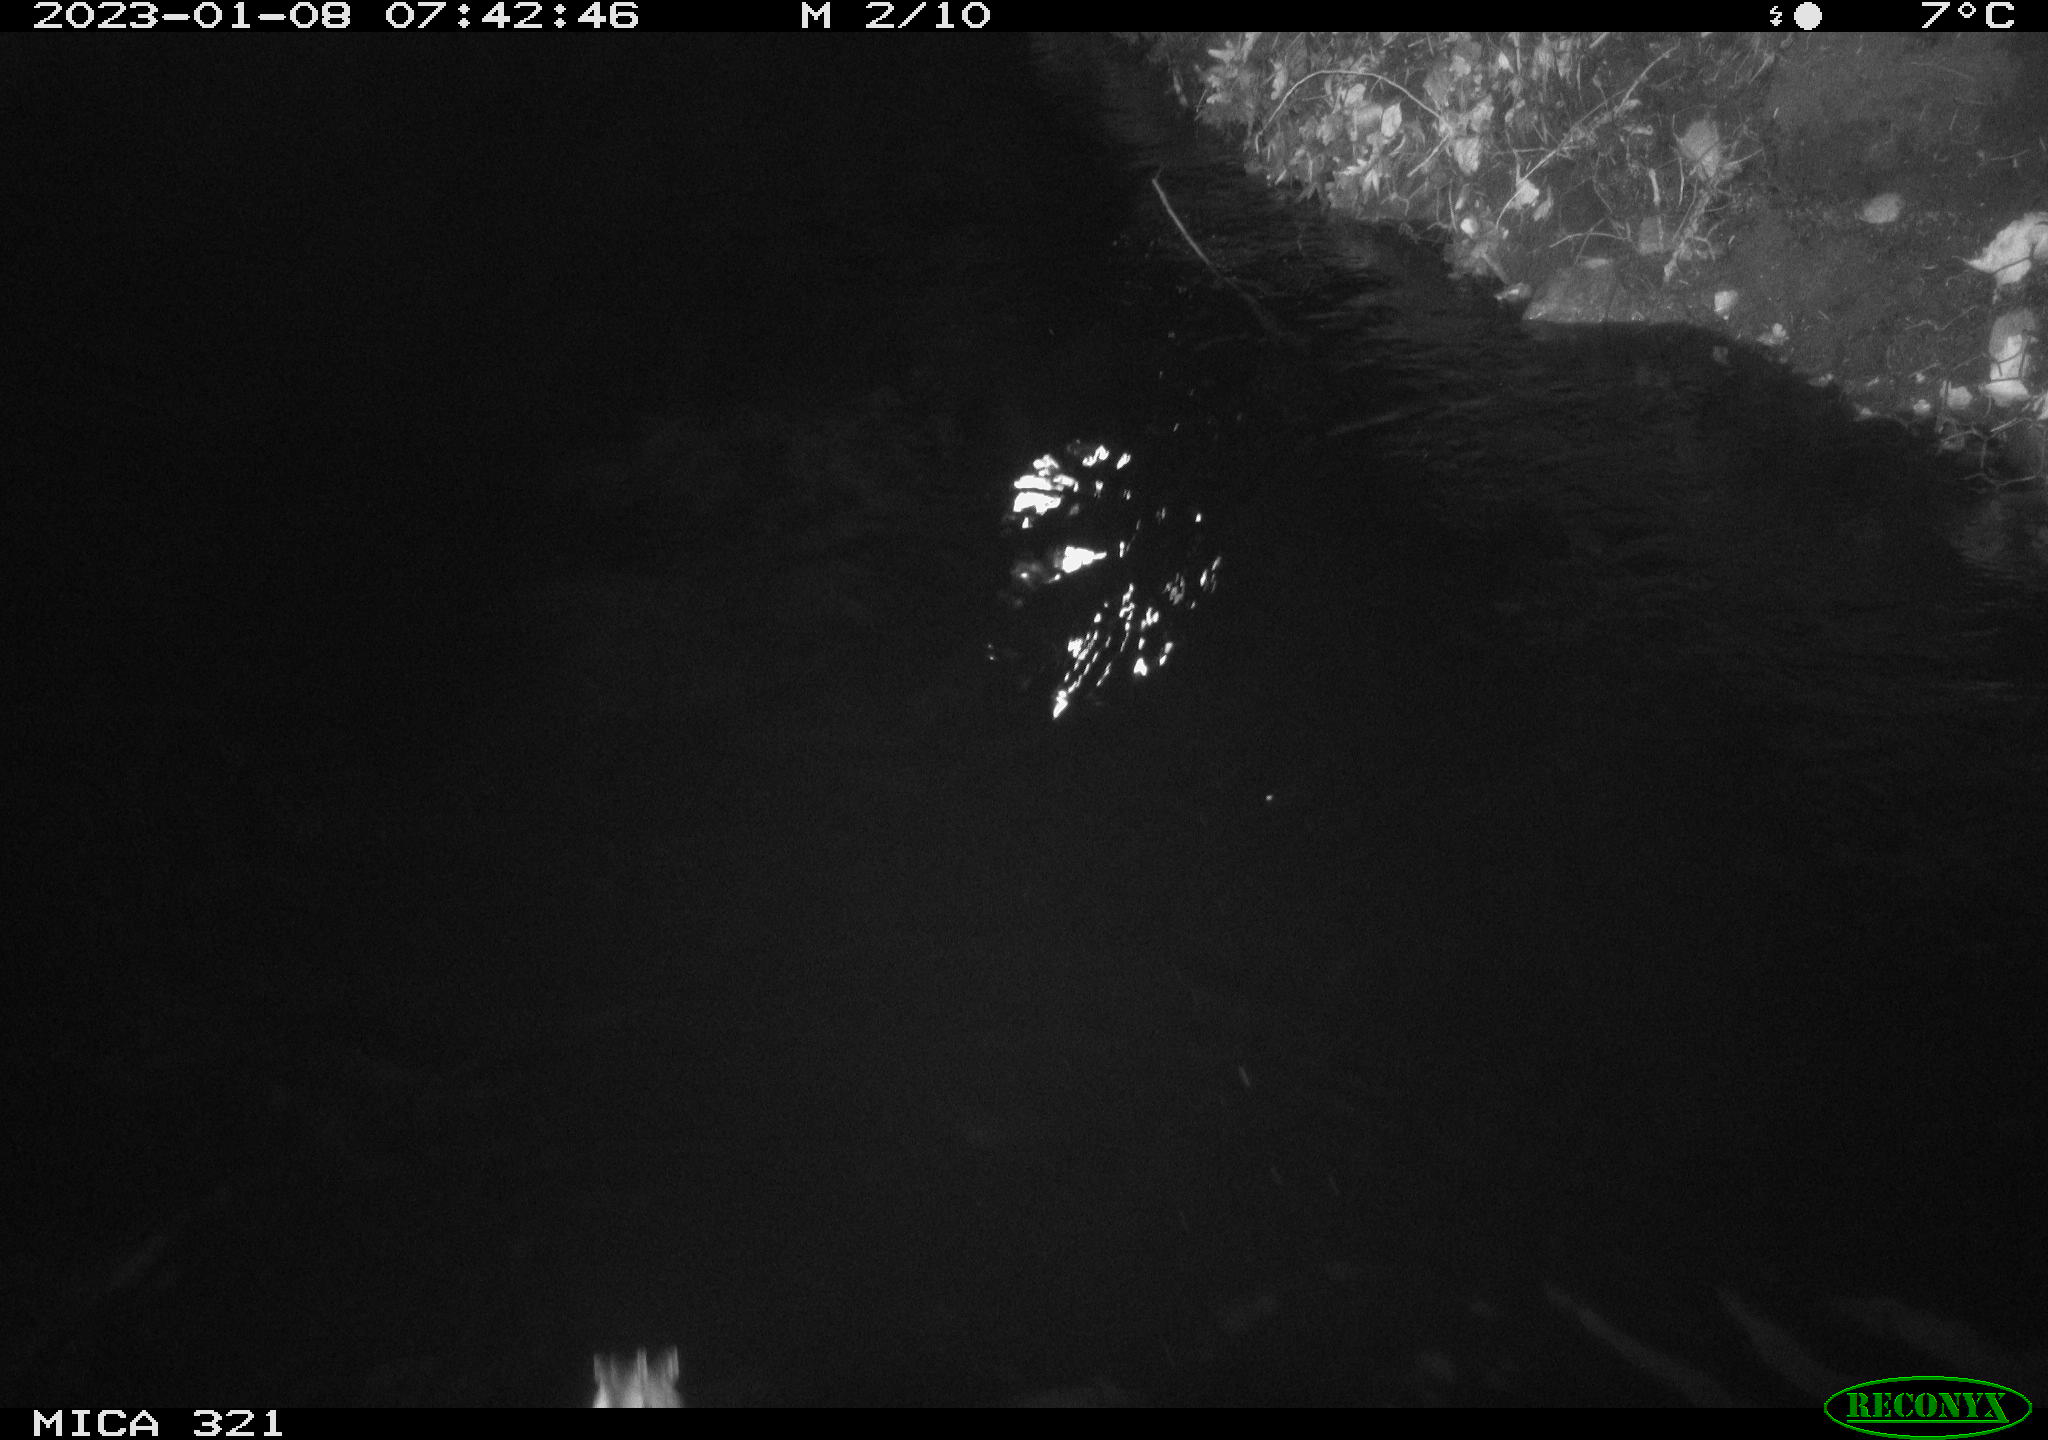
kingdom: Animalia
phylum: Chordata
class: Aves
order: Anseriformes
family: Anatidae
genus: Anas
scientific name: Anas
